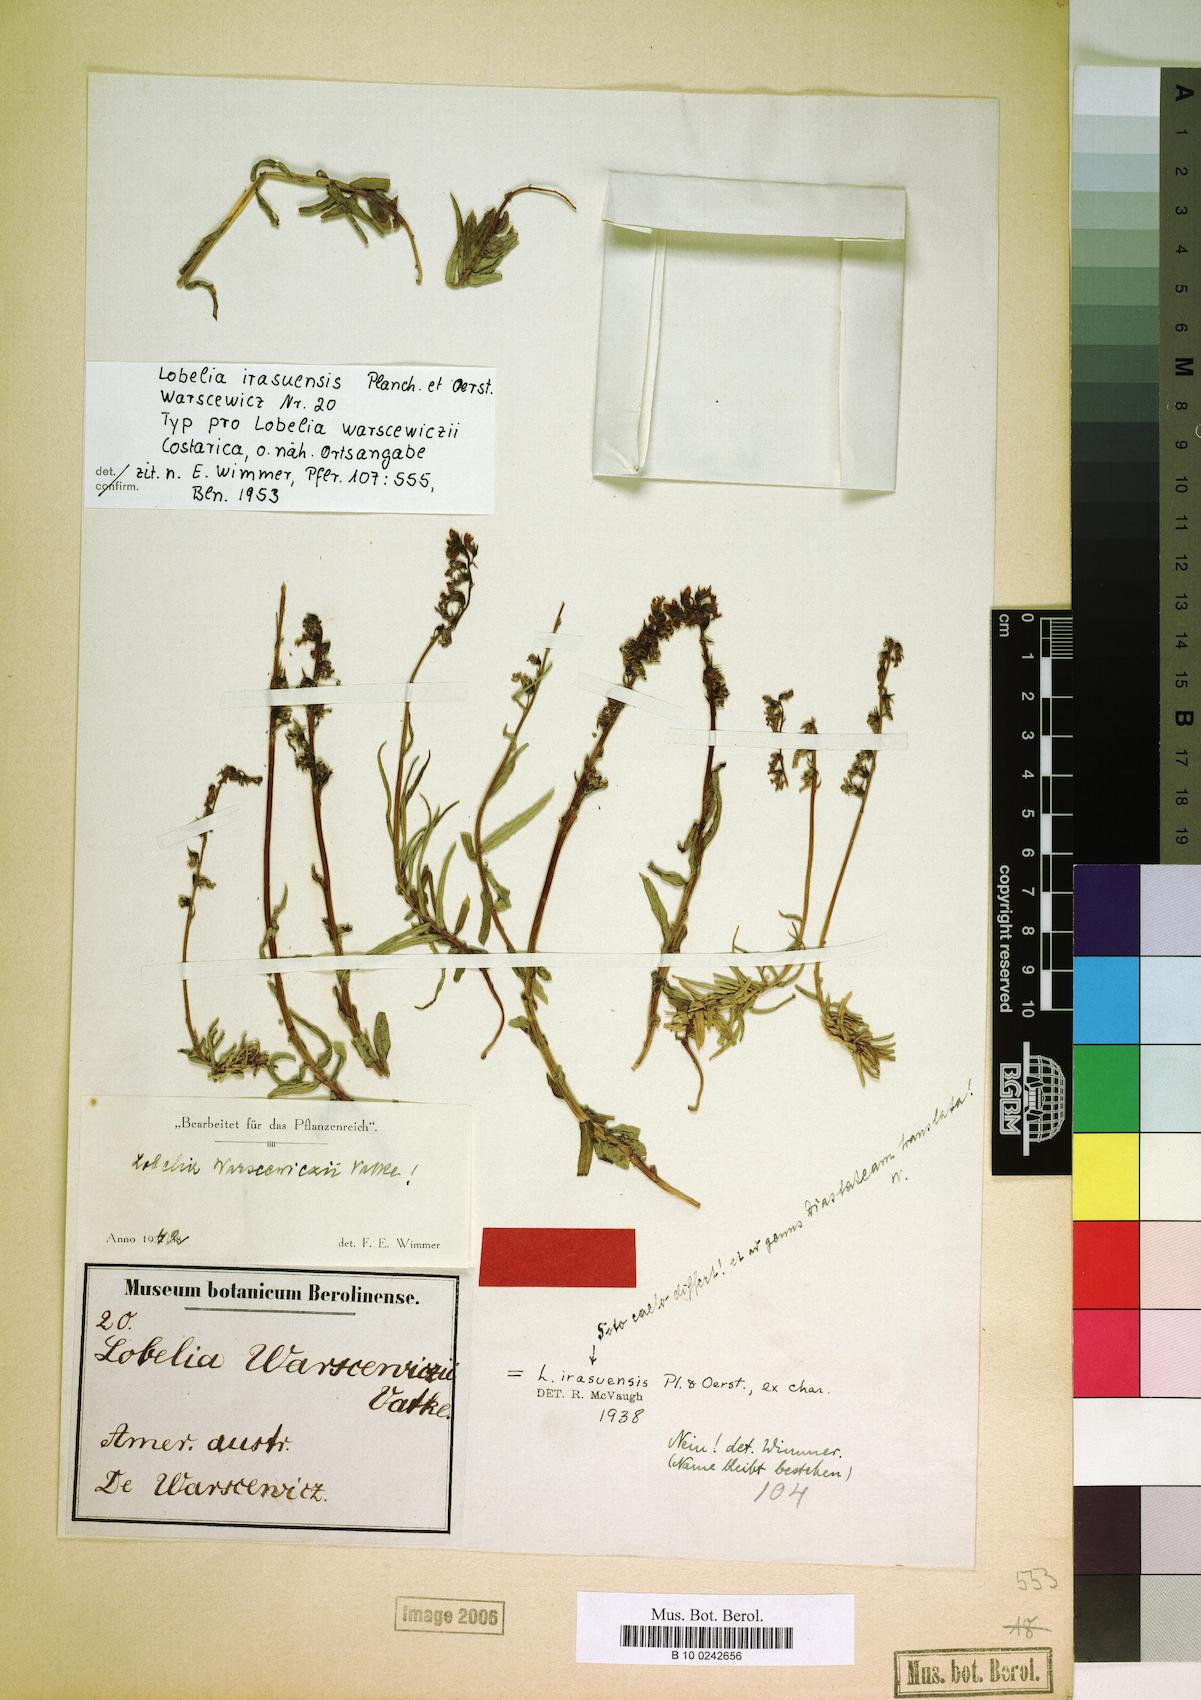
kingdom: Plantae
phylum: Tracheophyta
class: Magnoliopsida
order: Asterales
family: Campanulaceae
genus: Lobelia
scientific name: Lobelia irasuensis
